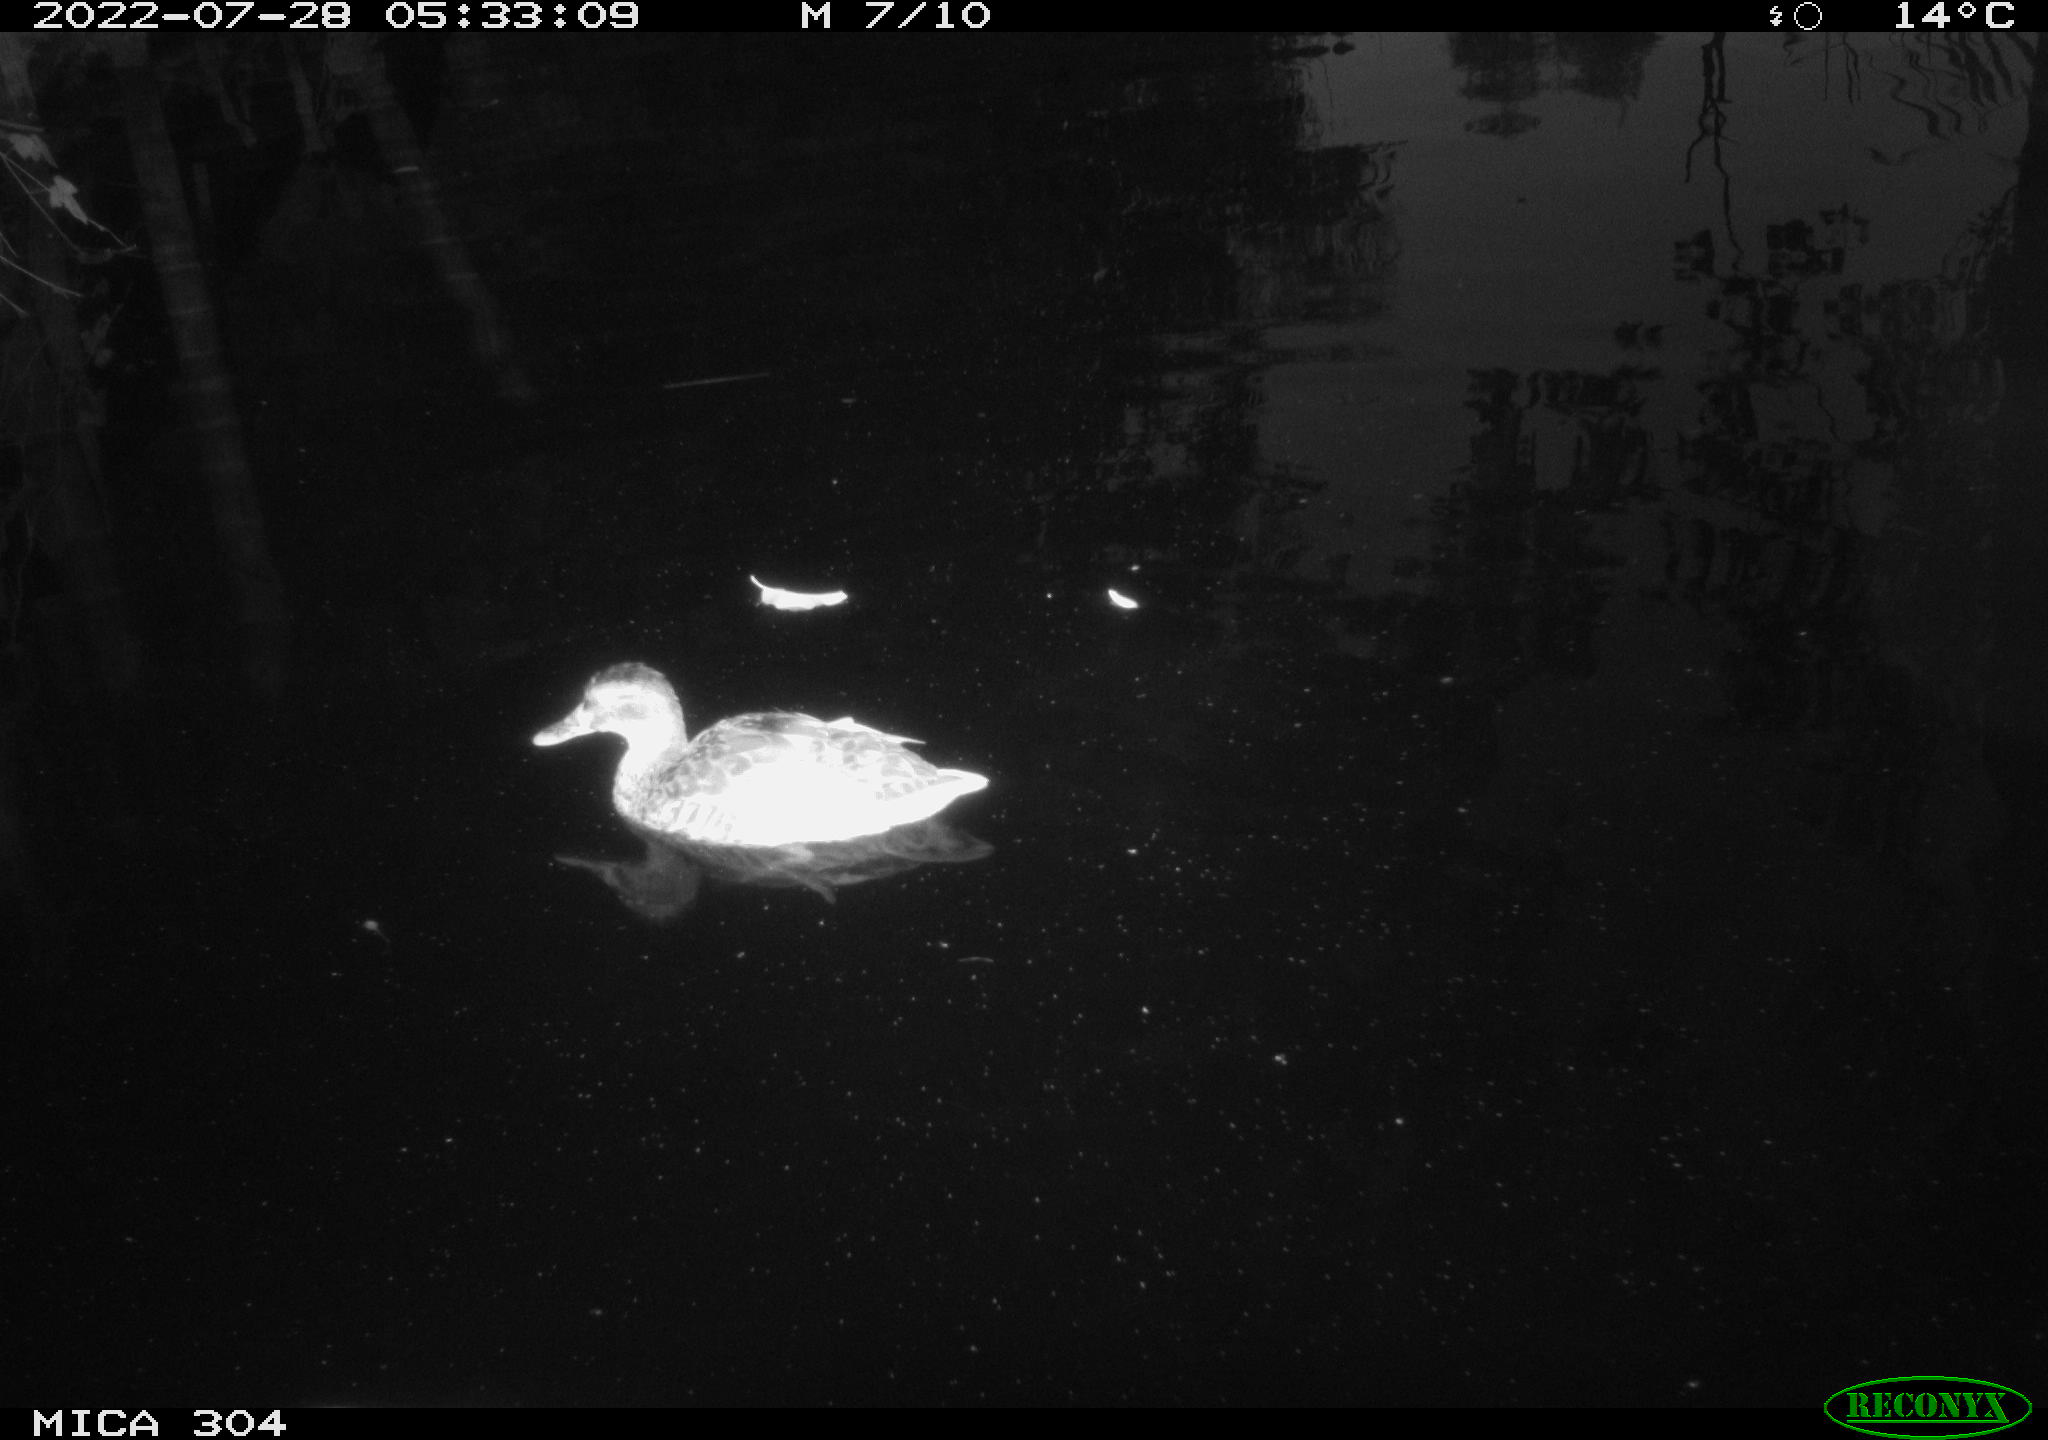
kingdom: Animalia
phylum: Chordata
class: Aves
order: Anseriformes
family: Anatidae
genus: Mareca
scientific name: Mareca strepera
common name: Gadwall
